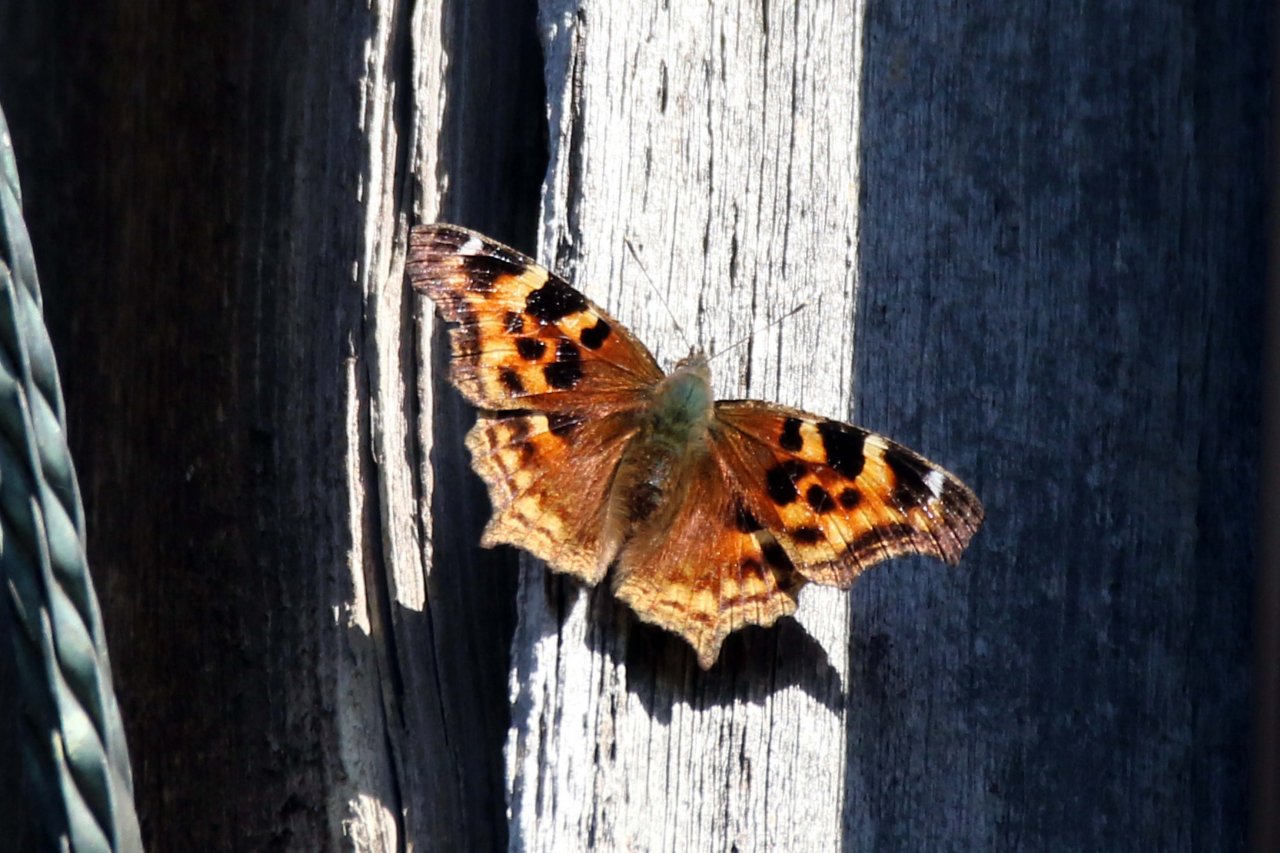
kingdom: Animalia
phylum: Arthropoda
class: Insecta
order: Lepidoptera
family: Nymphalidae
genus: Polygonia
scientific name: Polygonia vaualbum
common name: Compton Tortoiseshell
